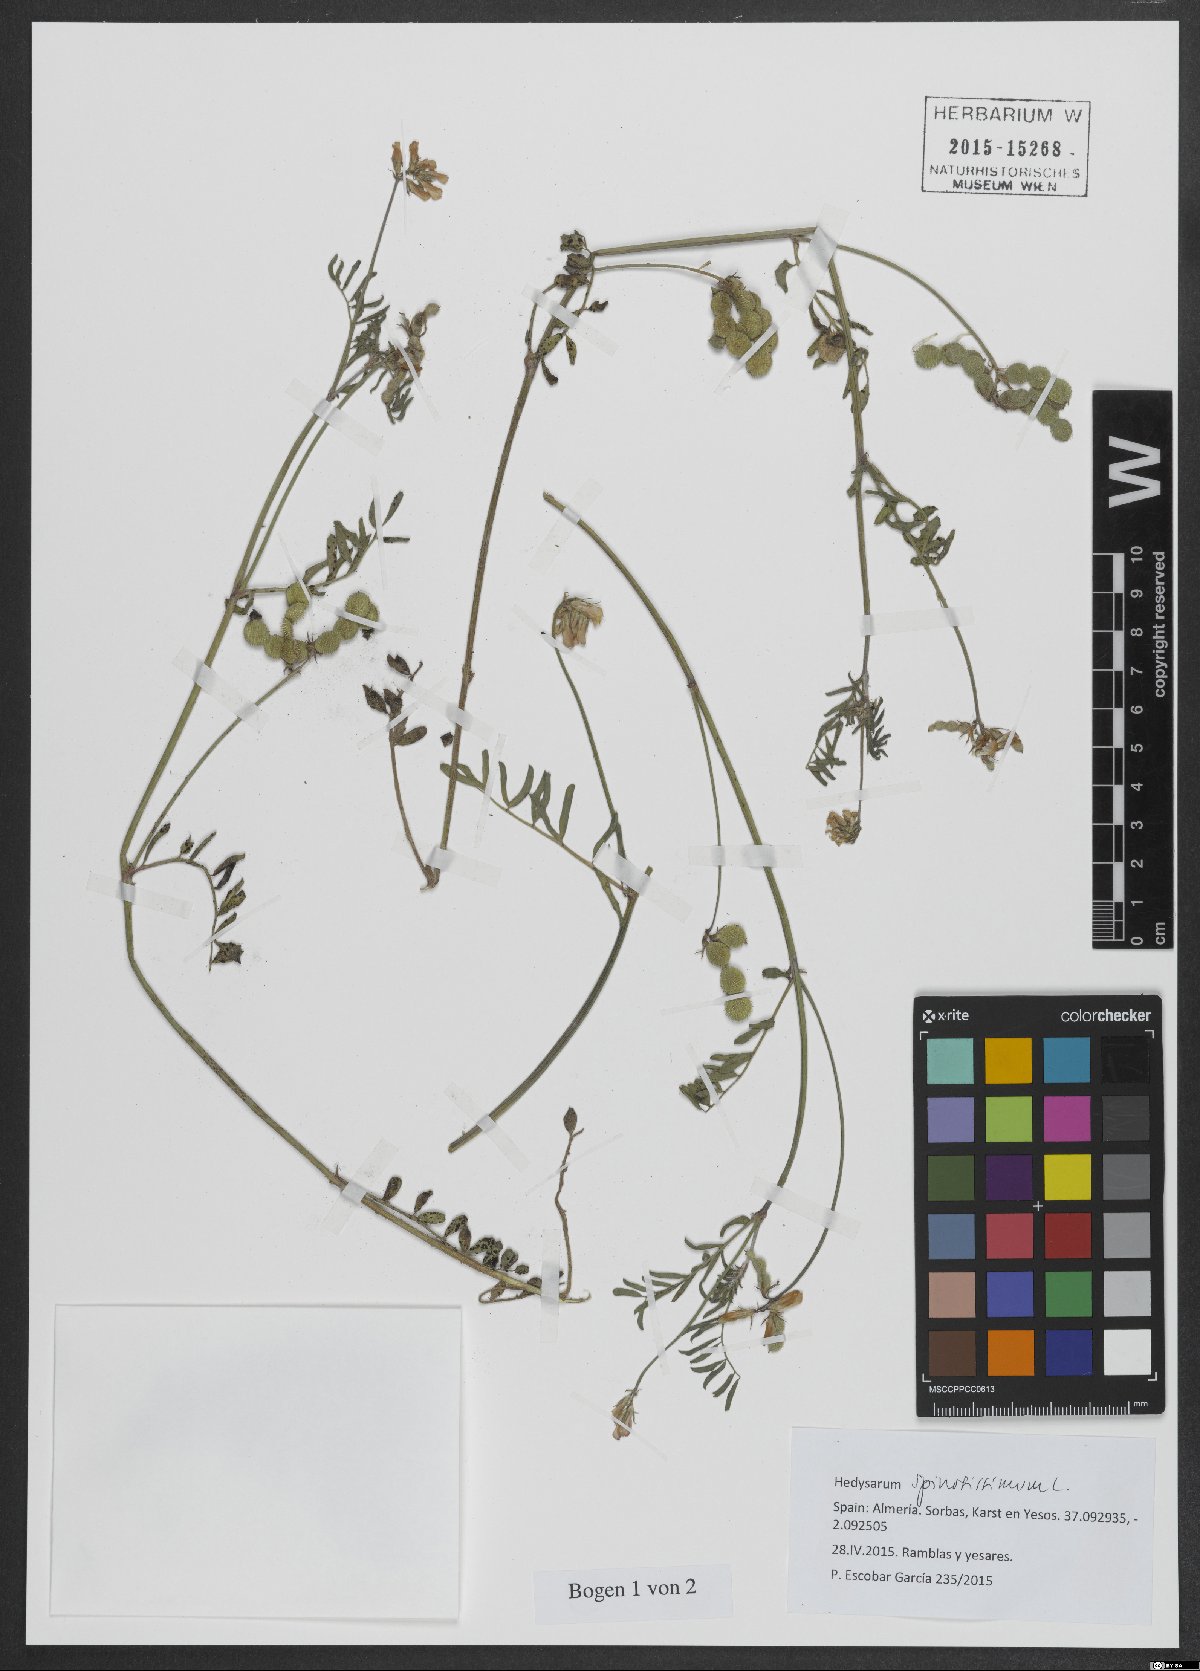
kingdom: Plantae
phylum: Tracheophyta
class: Magnoliopsida
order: Fabales
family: Fabaceae
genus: Sulla
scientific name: Sulla spinosissima
